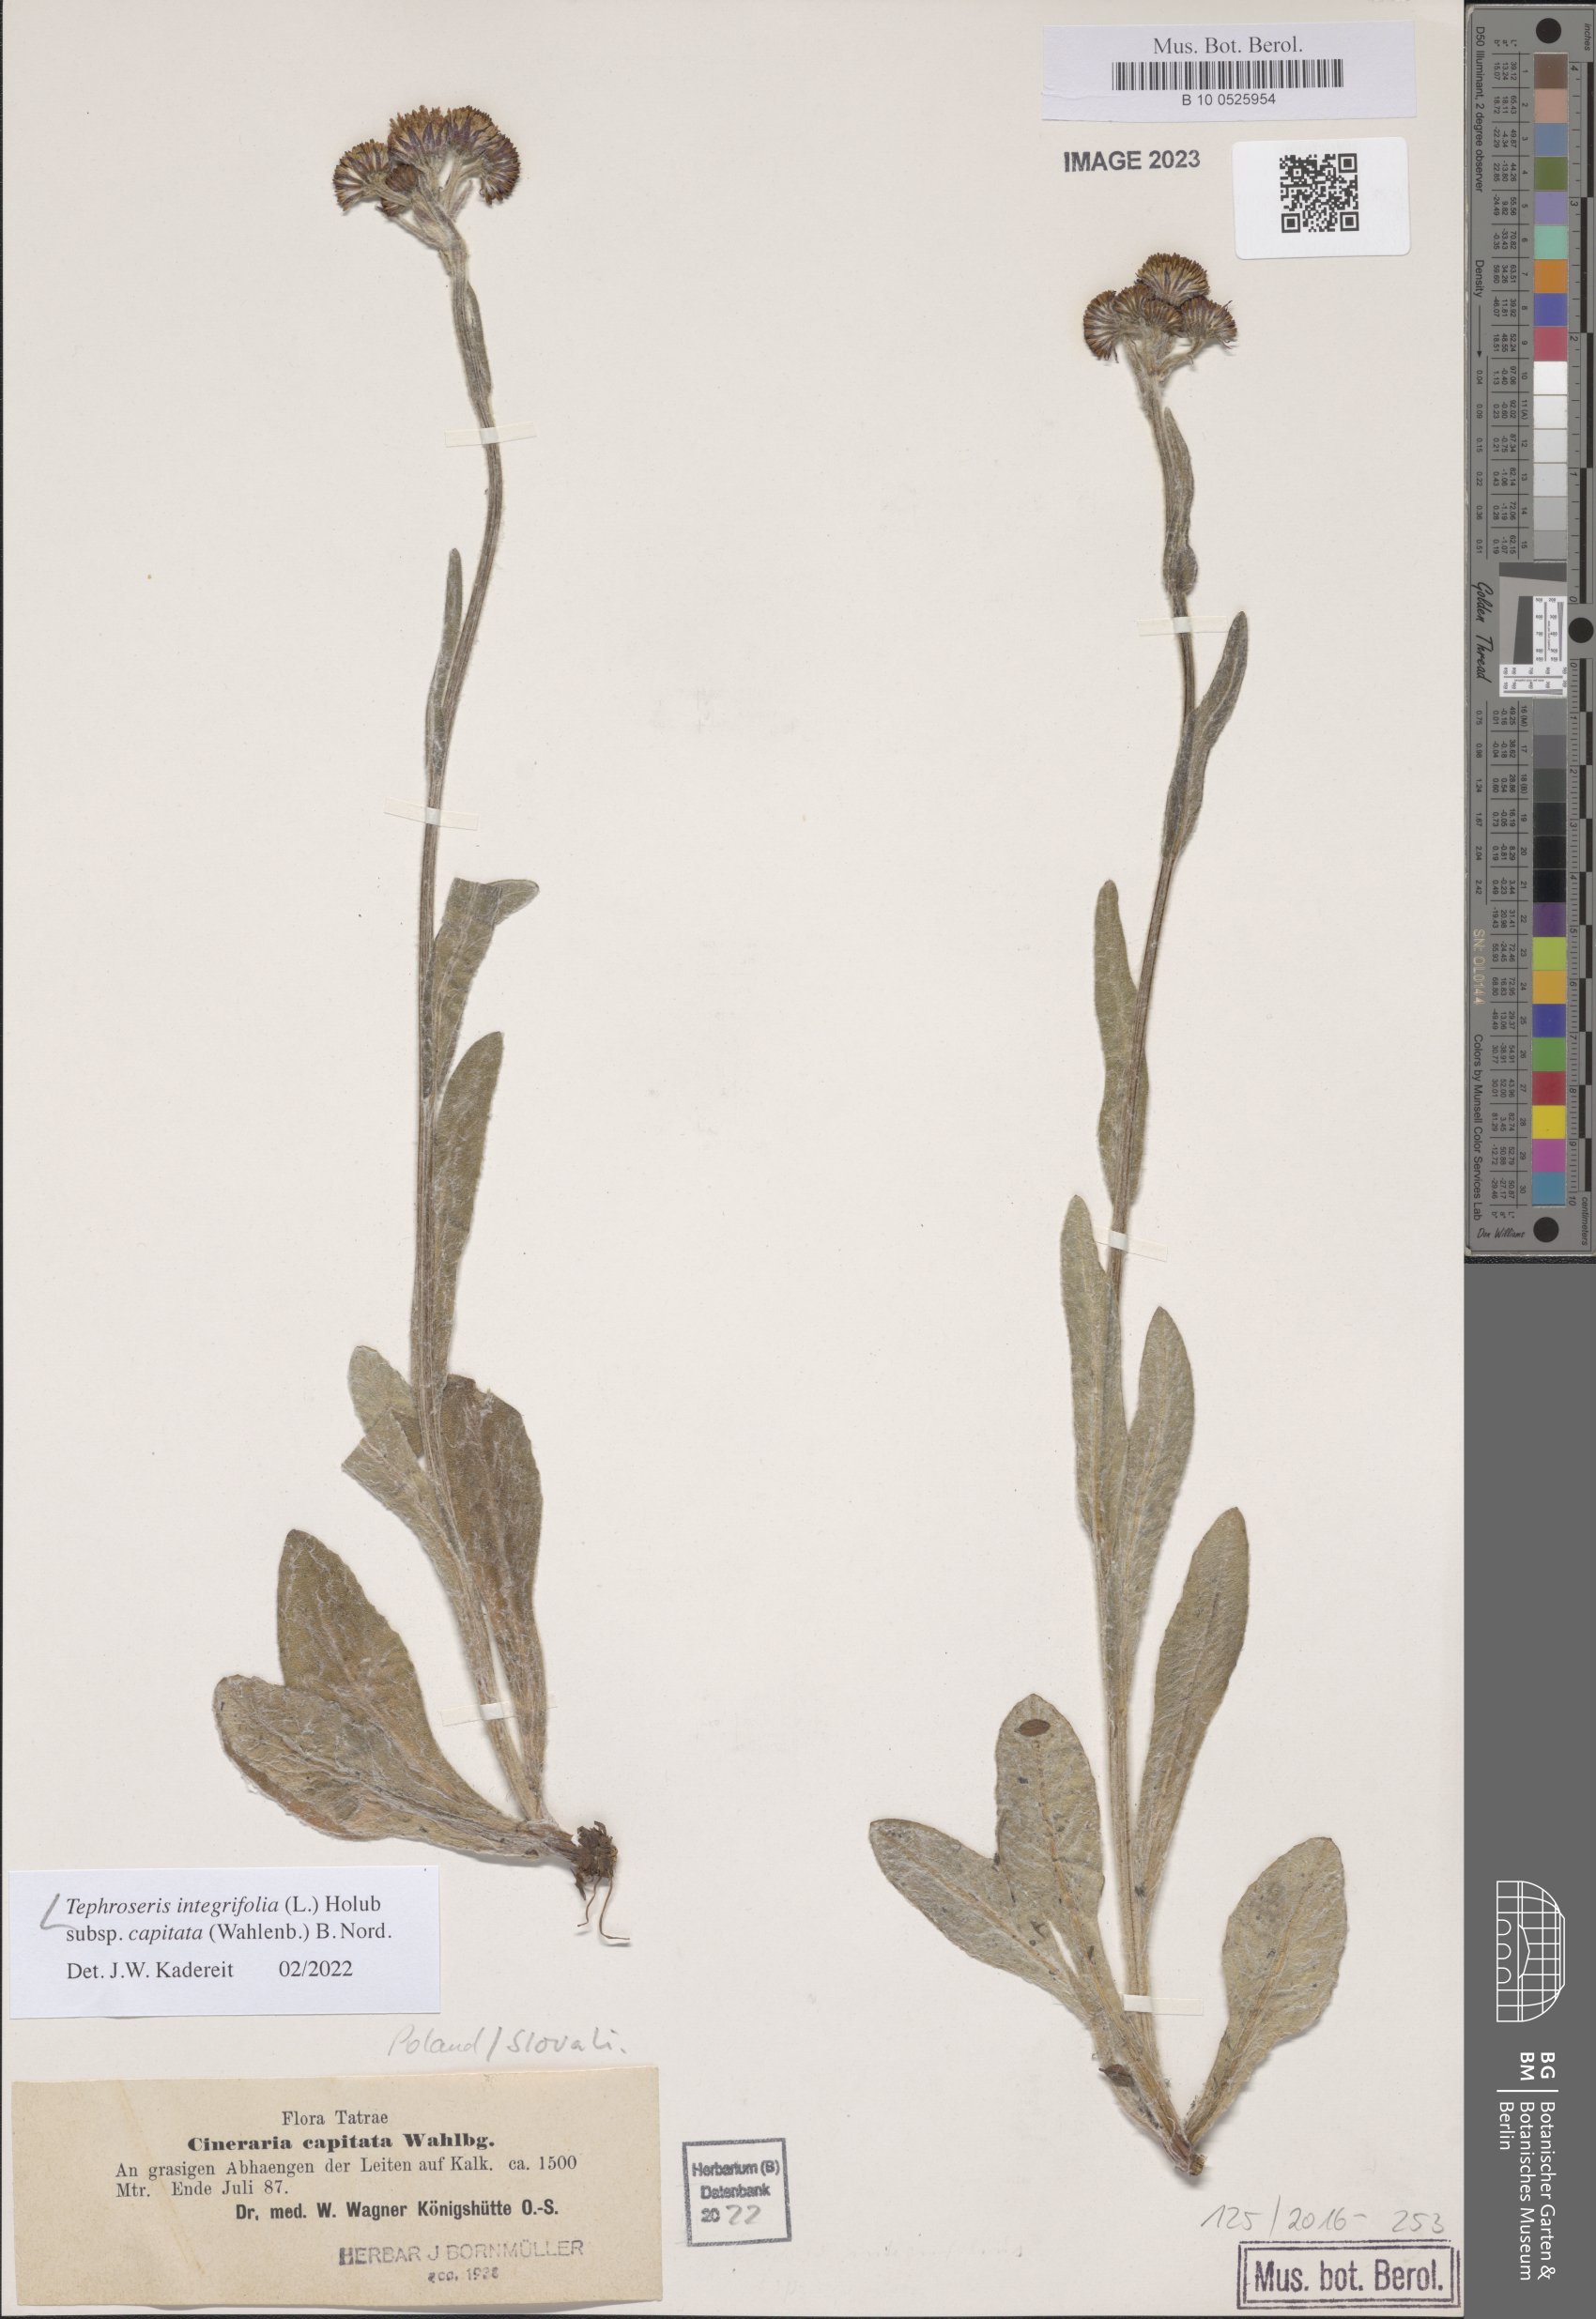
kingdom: Plantae
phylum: Tracheophyta
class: Magnoliopsida
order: Asterales
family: Asteraceae
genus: Tephroseris
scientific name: Tephroseris integrifolia
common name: Field fleawort
